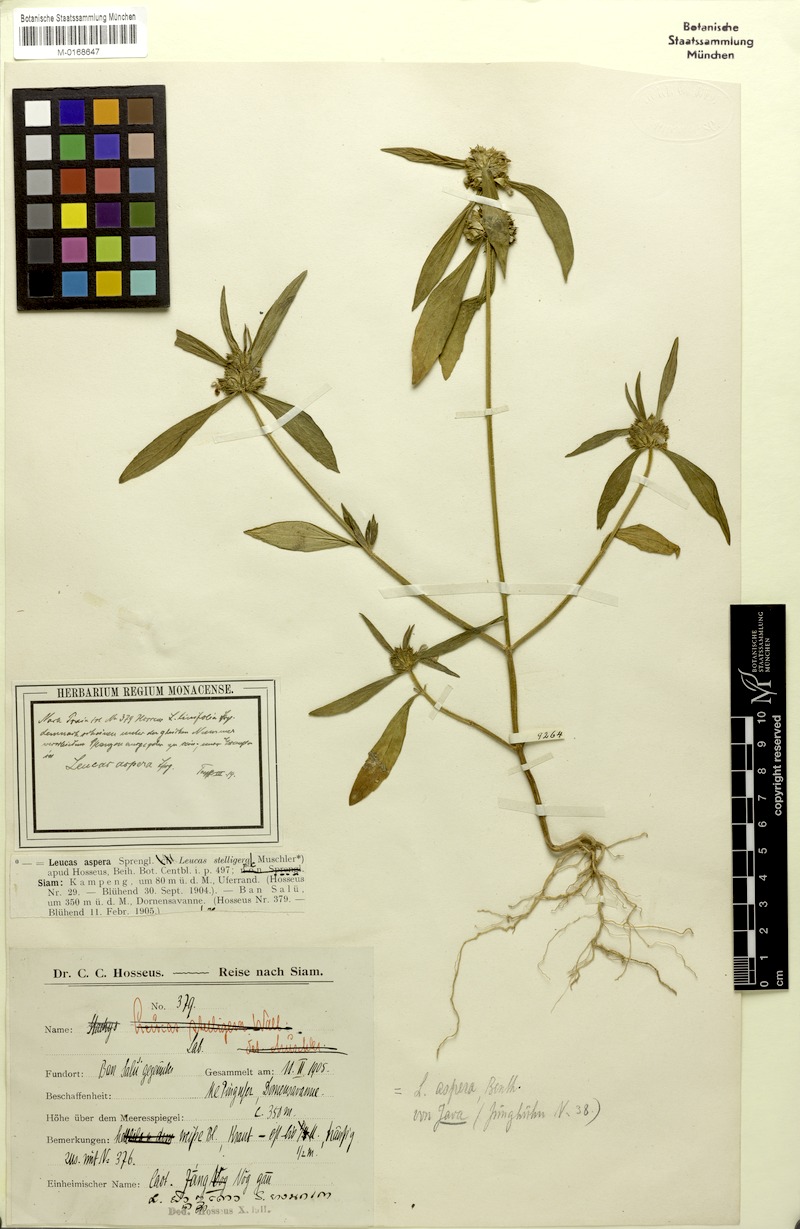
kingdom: Plantae
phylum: Tracheophyta
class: Magnoliopsida
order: Lamiales
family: Lamiaceae
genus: Leucas
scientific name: Leucas aspera
